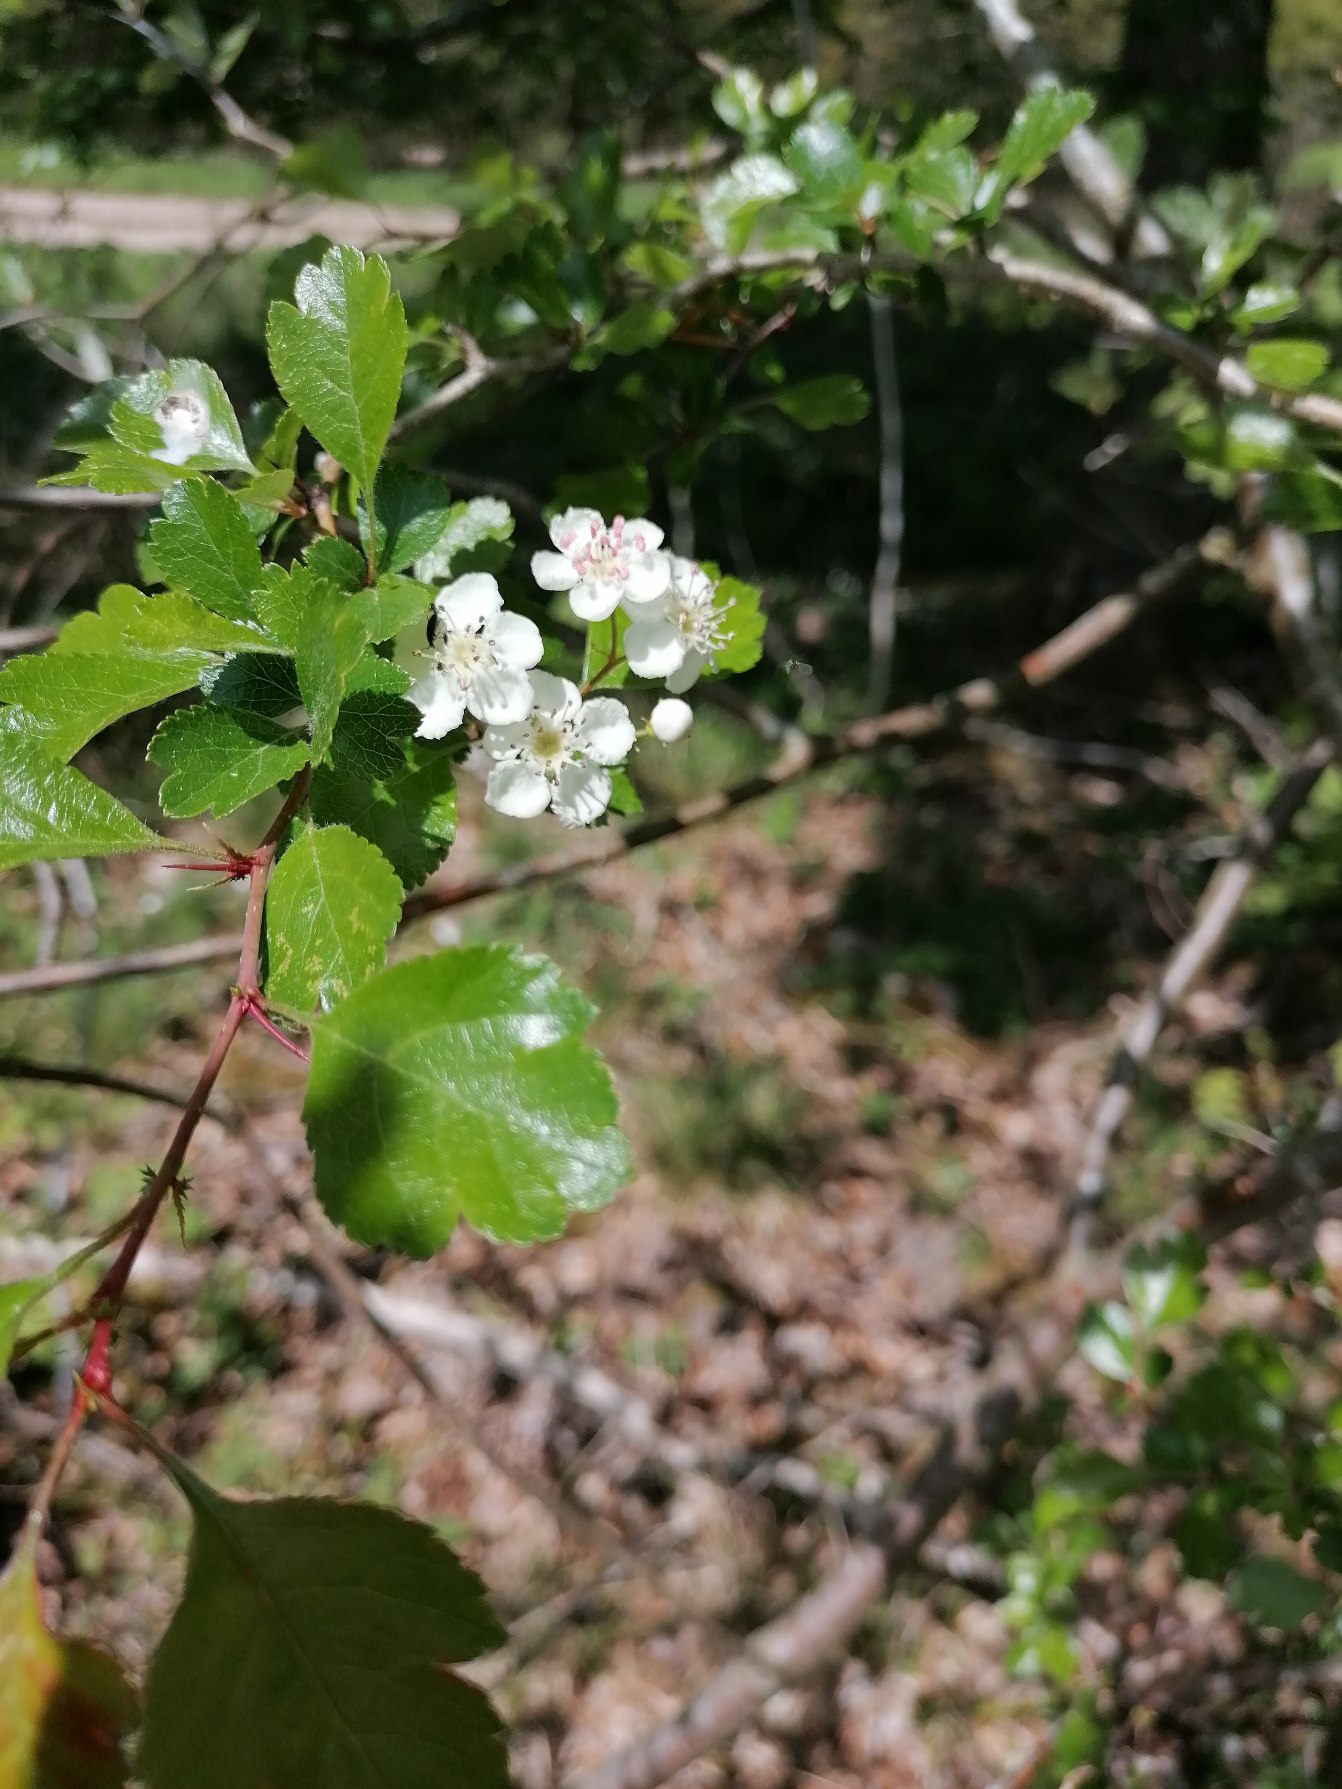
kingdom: Plantae
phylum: Tracheophyta
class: Magnoliopsida
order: Rosales
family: Rosaceae
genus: Crataegus
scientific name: Crataegus laevigata
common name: Almindelig hvidtjørn
